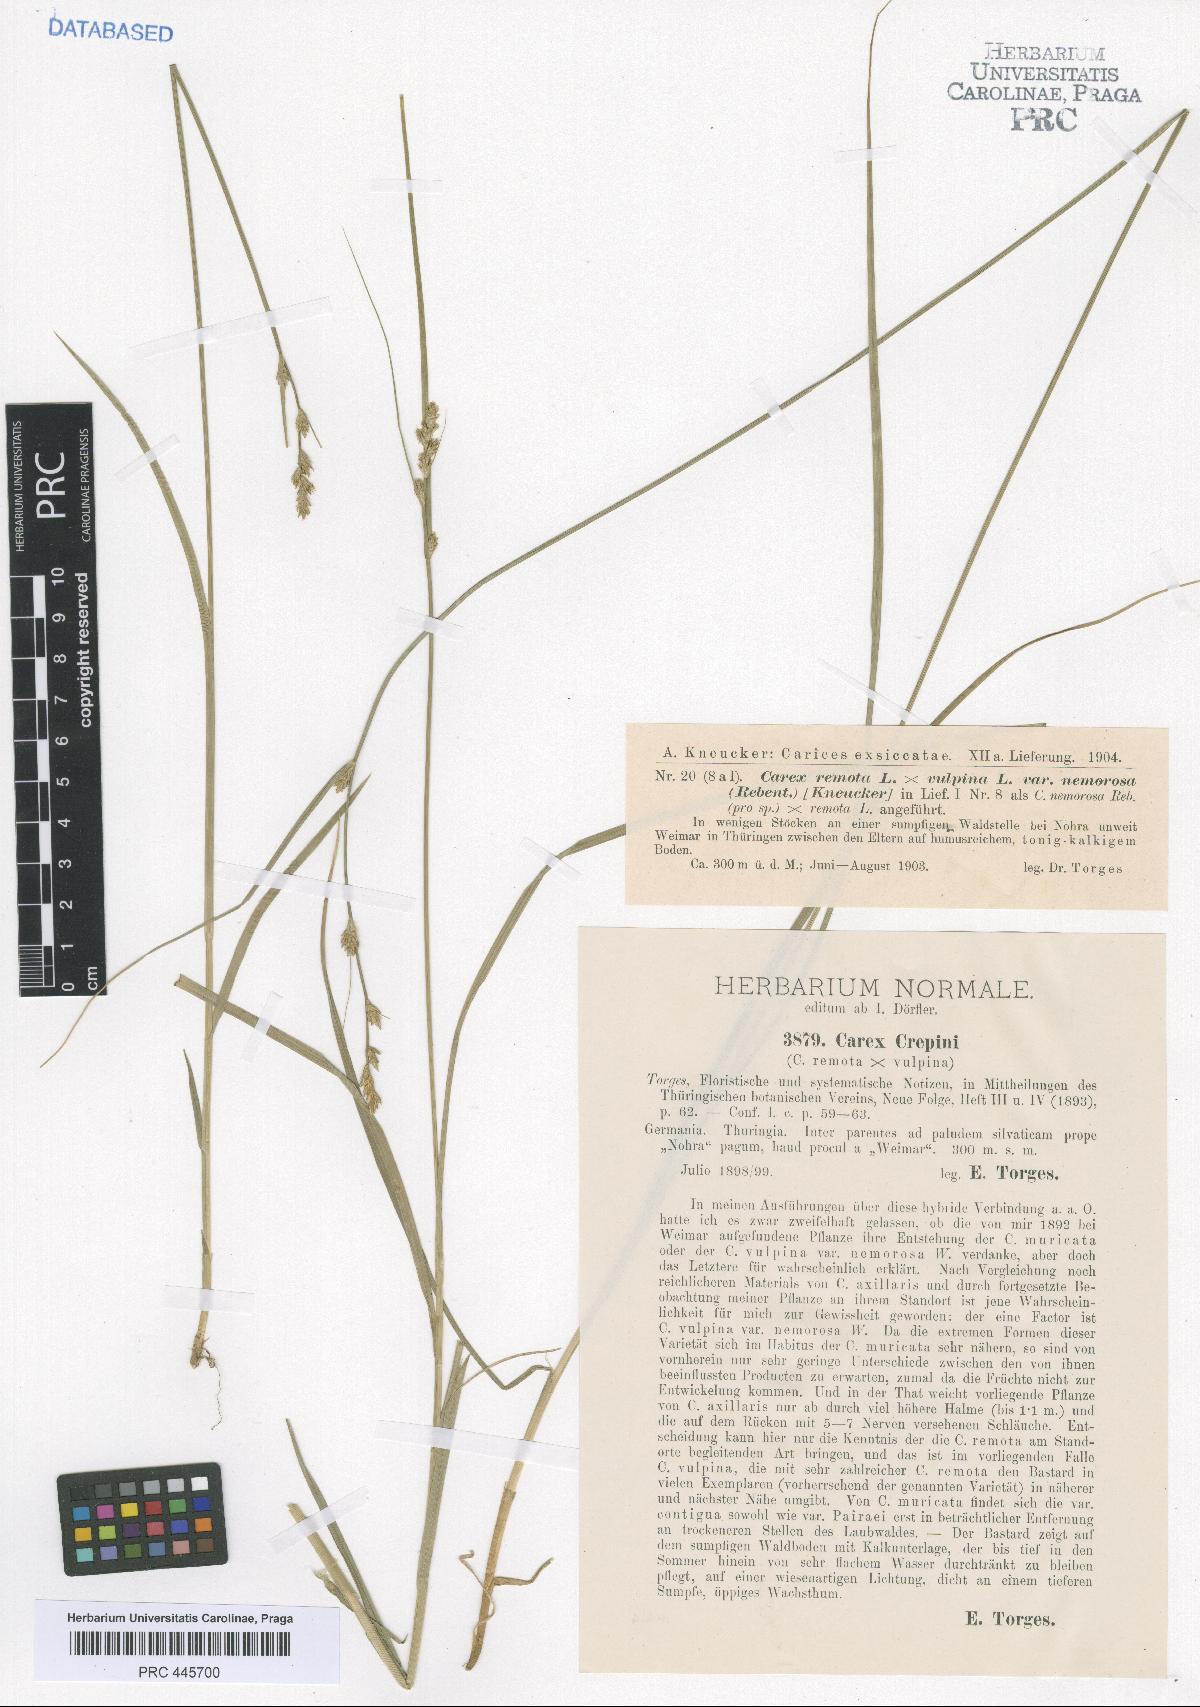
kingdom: Plantae
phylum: Tracheophyta
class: Liliopsida
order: Poales
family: Cyperaceae
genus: Carex
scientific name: Carex pseudoaxillaris
